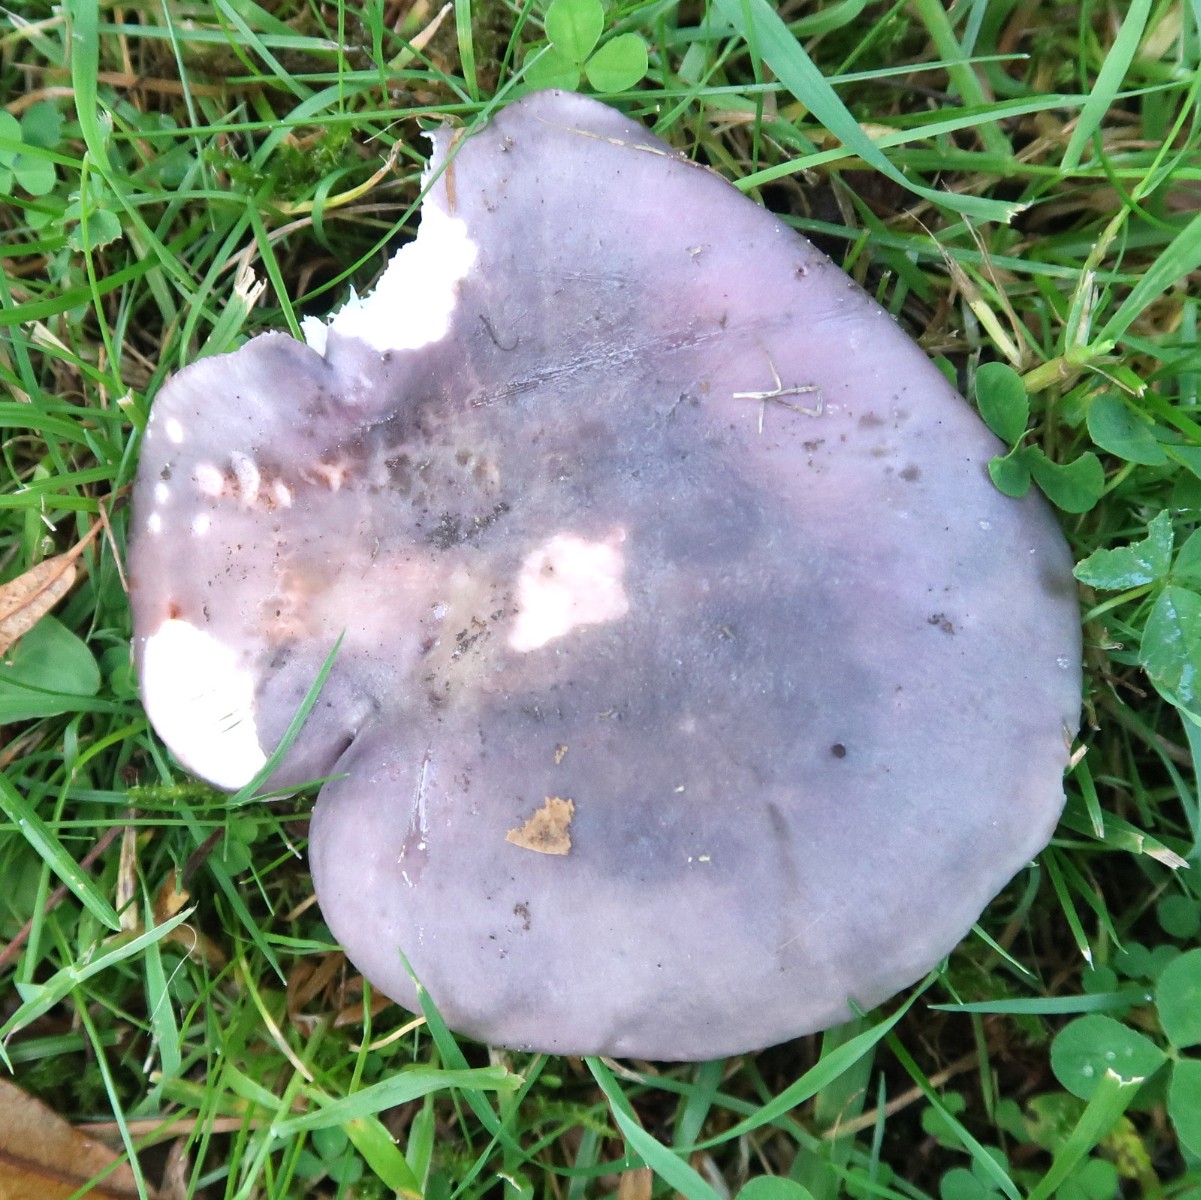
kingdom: Fungi
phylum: Basidiomycota
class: Agaricomycetes
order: Russulales
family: Russulaceae
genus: Russula
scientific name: Russula
